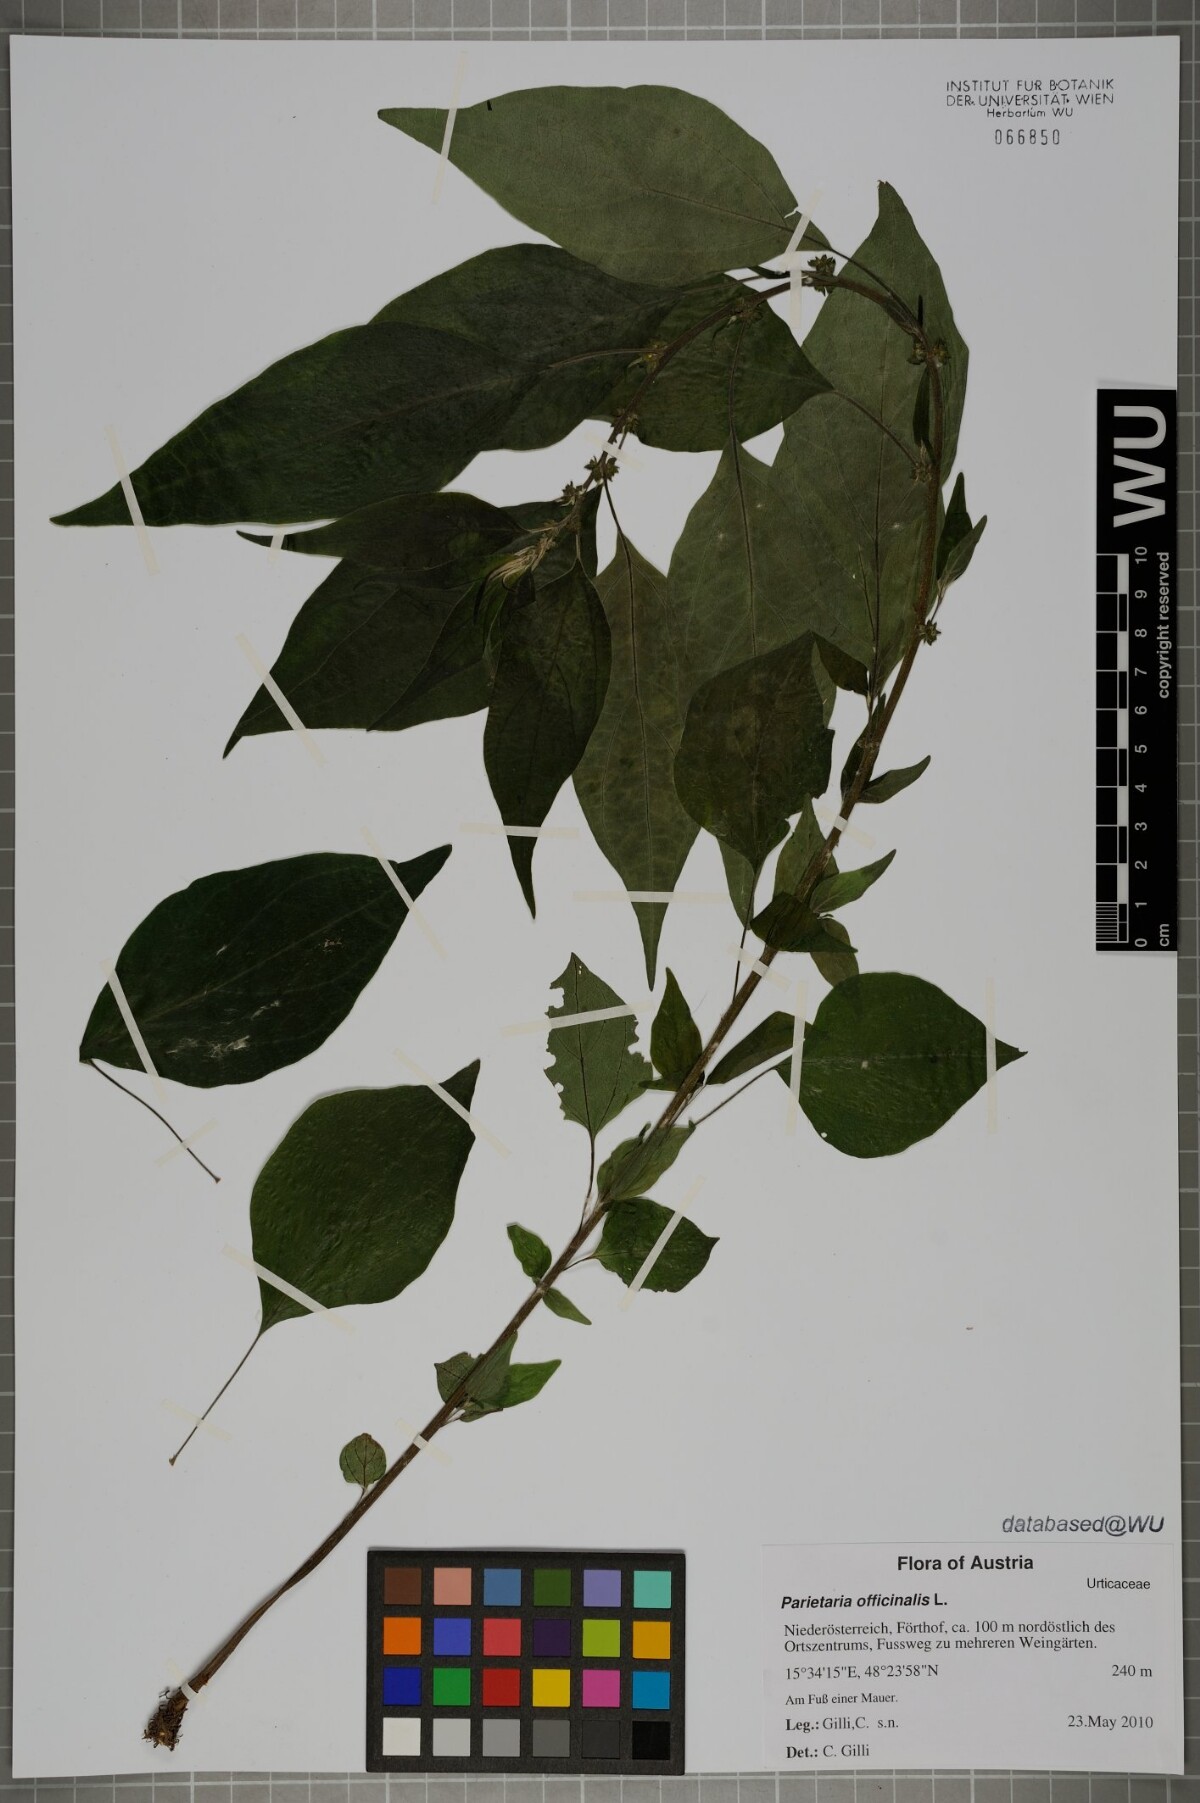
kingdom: Plantae
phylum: Tracheophyta
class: Magnoliopsida
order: Rosales
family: Urticaceae
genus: Parietaria
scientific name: Parietaria officinalis
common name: Eastern pellitory-of-the-wall
